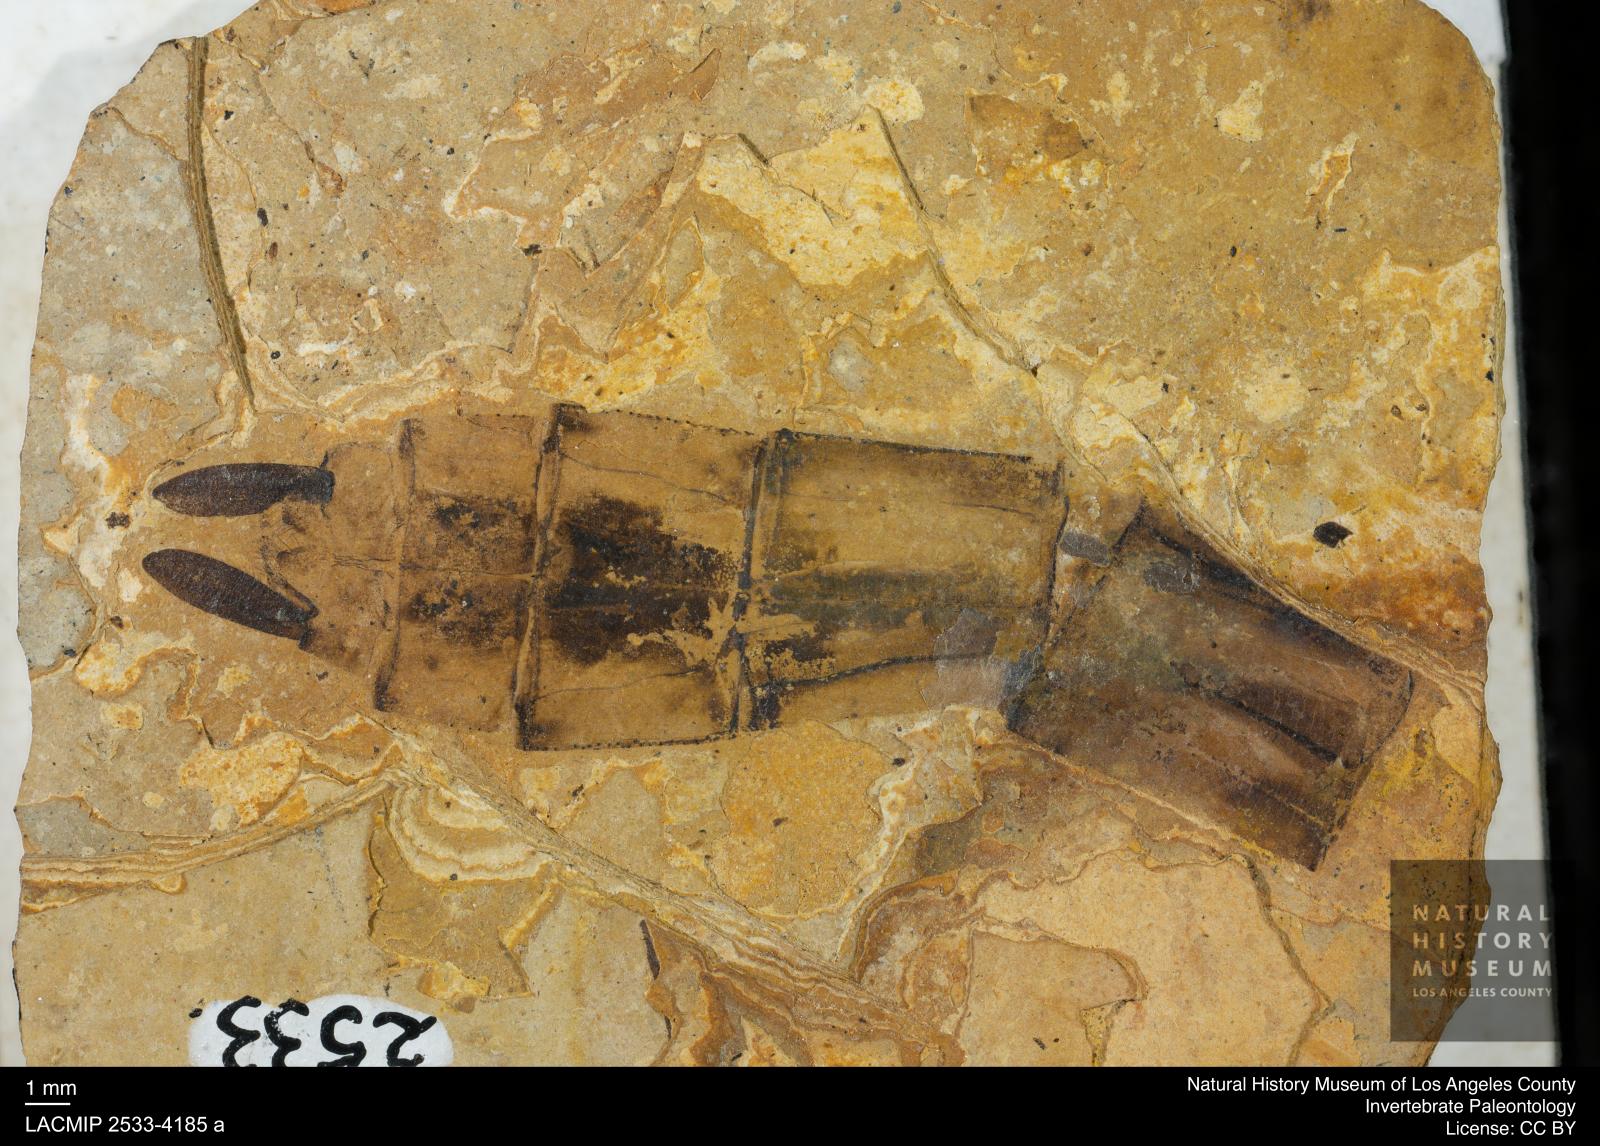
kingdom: Animalia
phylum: Arthropoda
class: Insecta
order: Odonata
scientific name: Odonata
